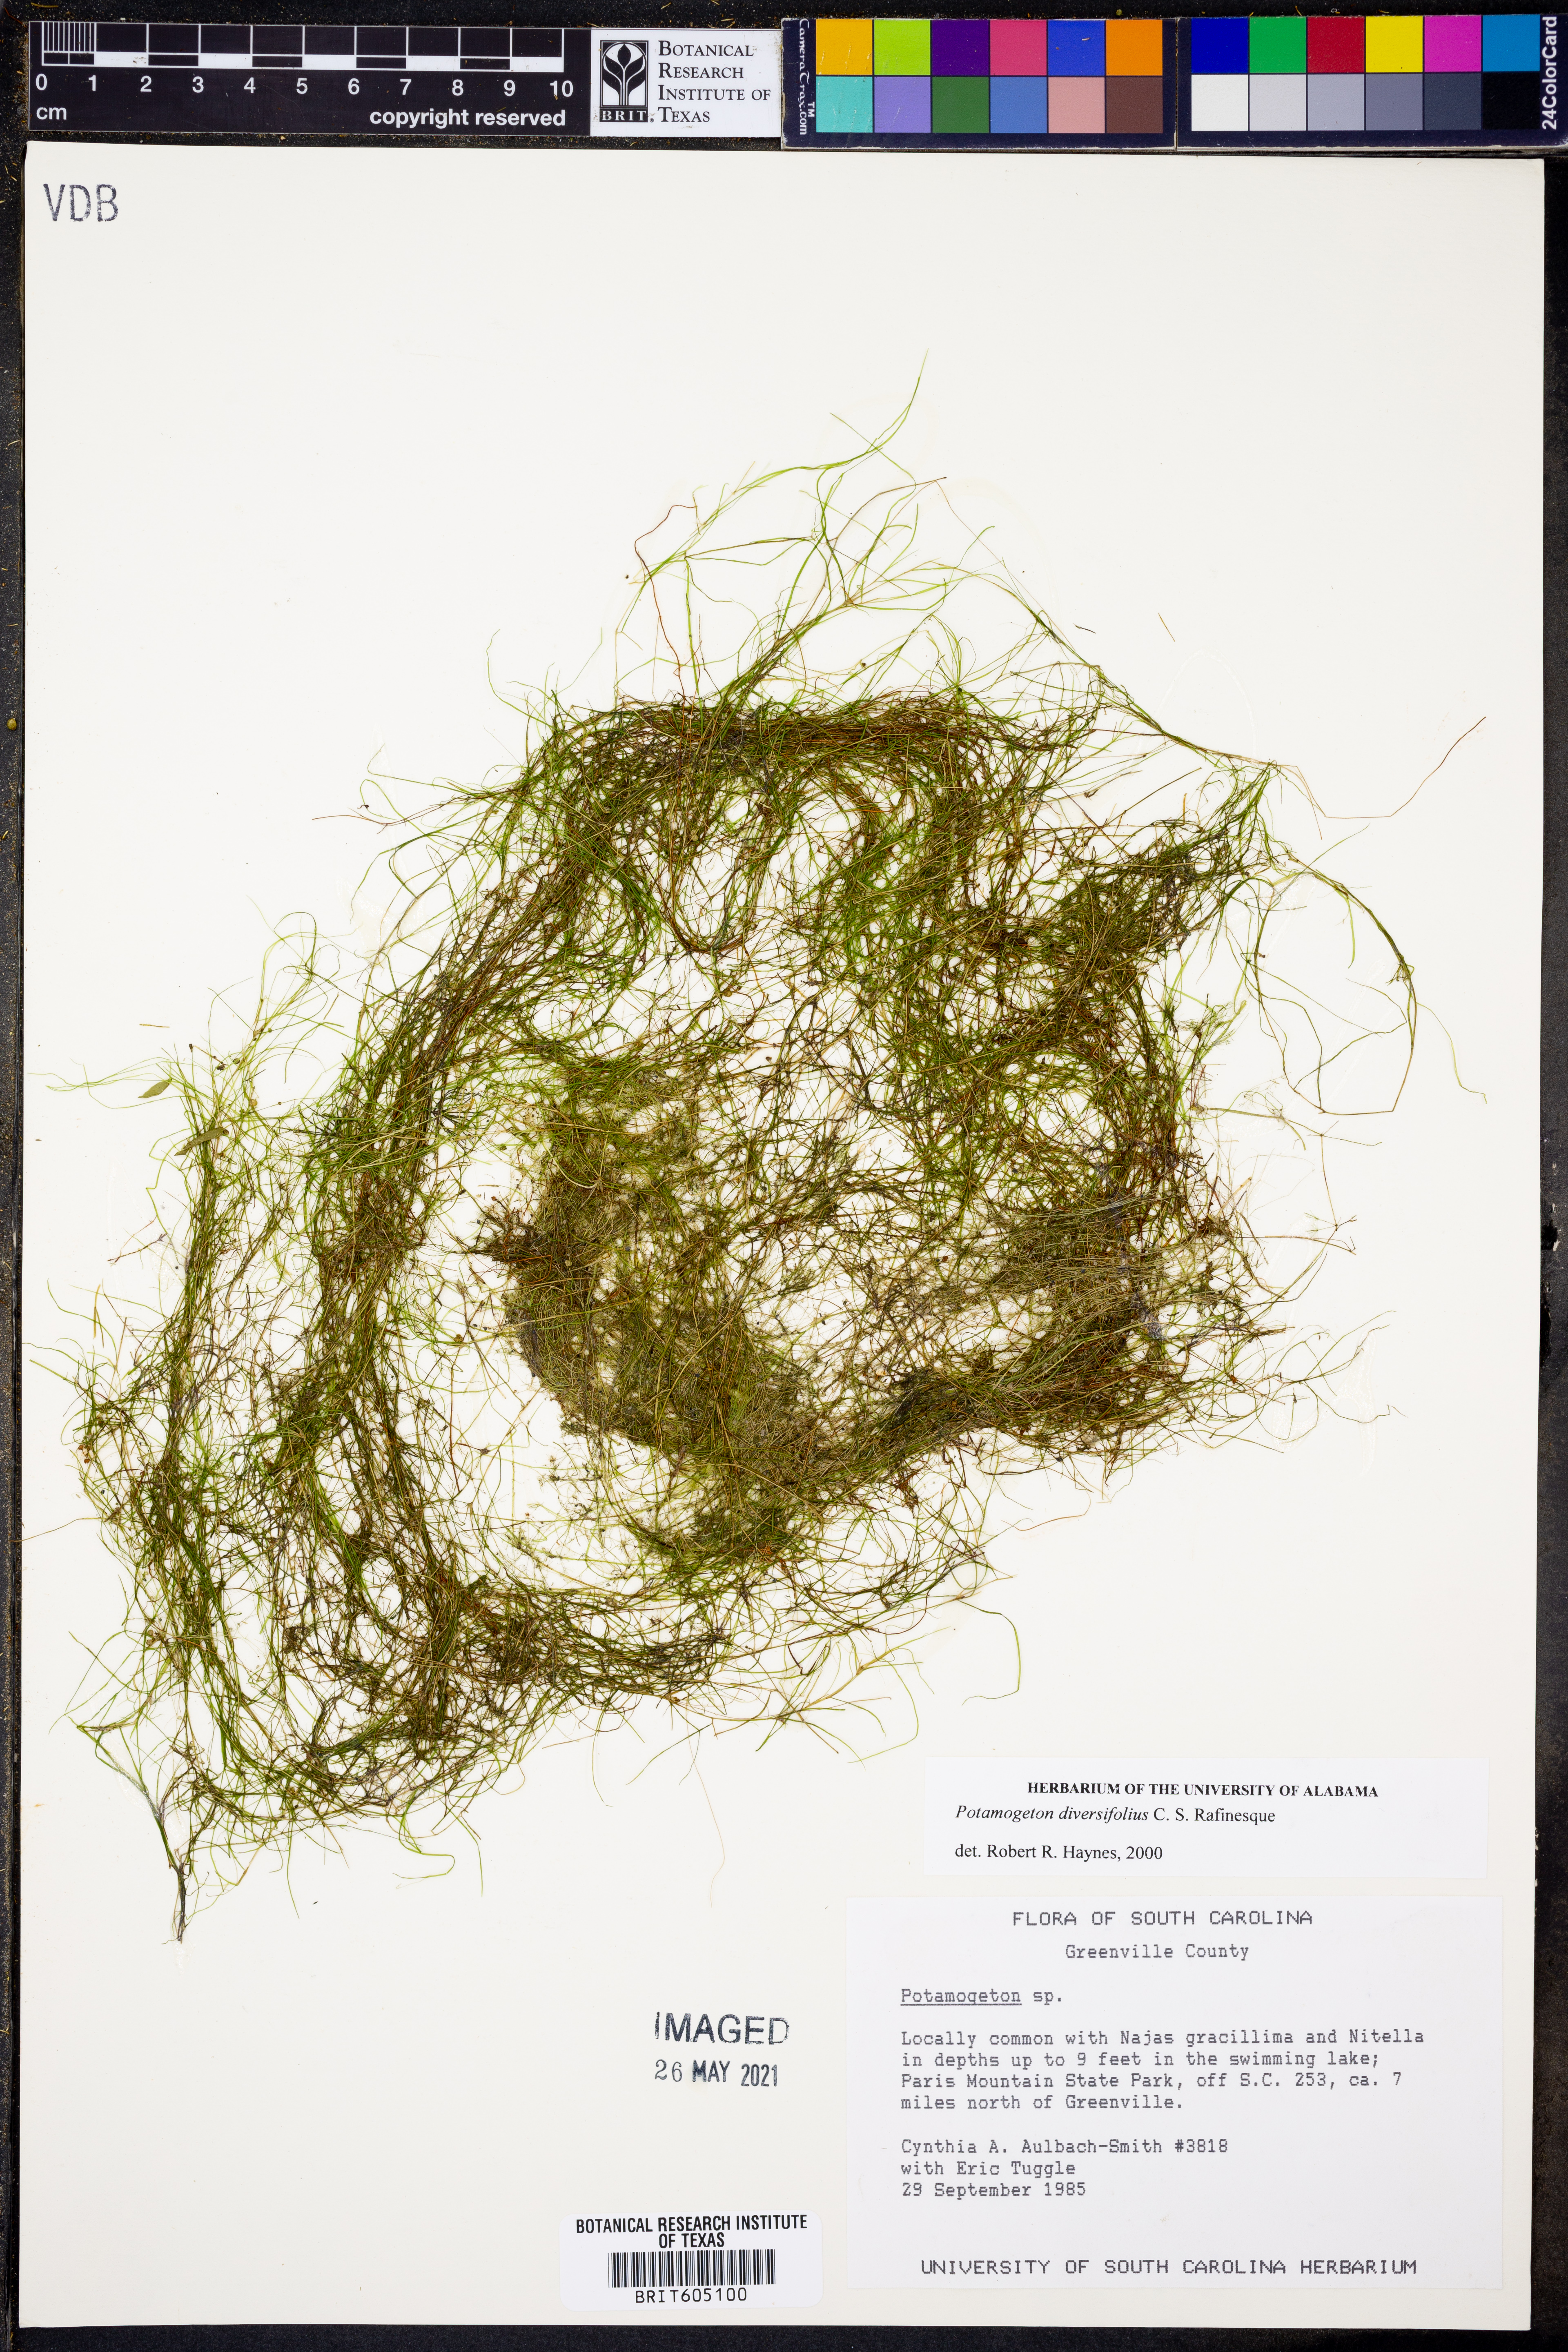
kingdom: Plantae
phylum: Tracheophyta
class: Liliopsida
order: Alismatales
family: Potamogetonaceae
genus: Potamogeton
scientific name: Potamogeton diversifolius
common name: Water-thread pondweed
